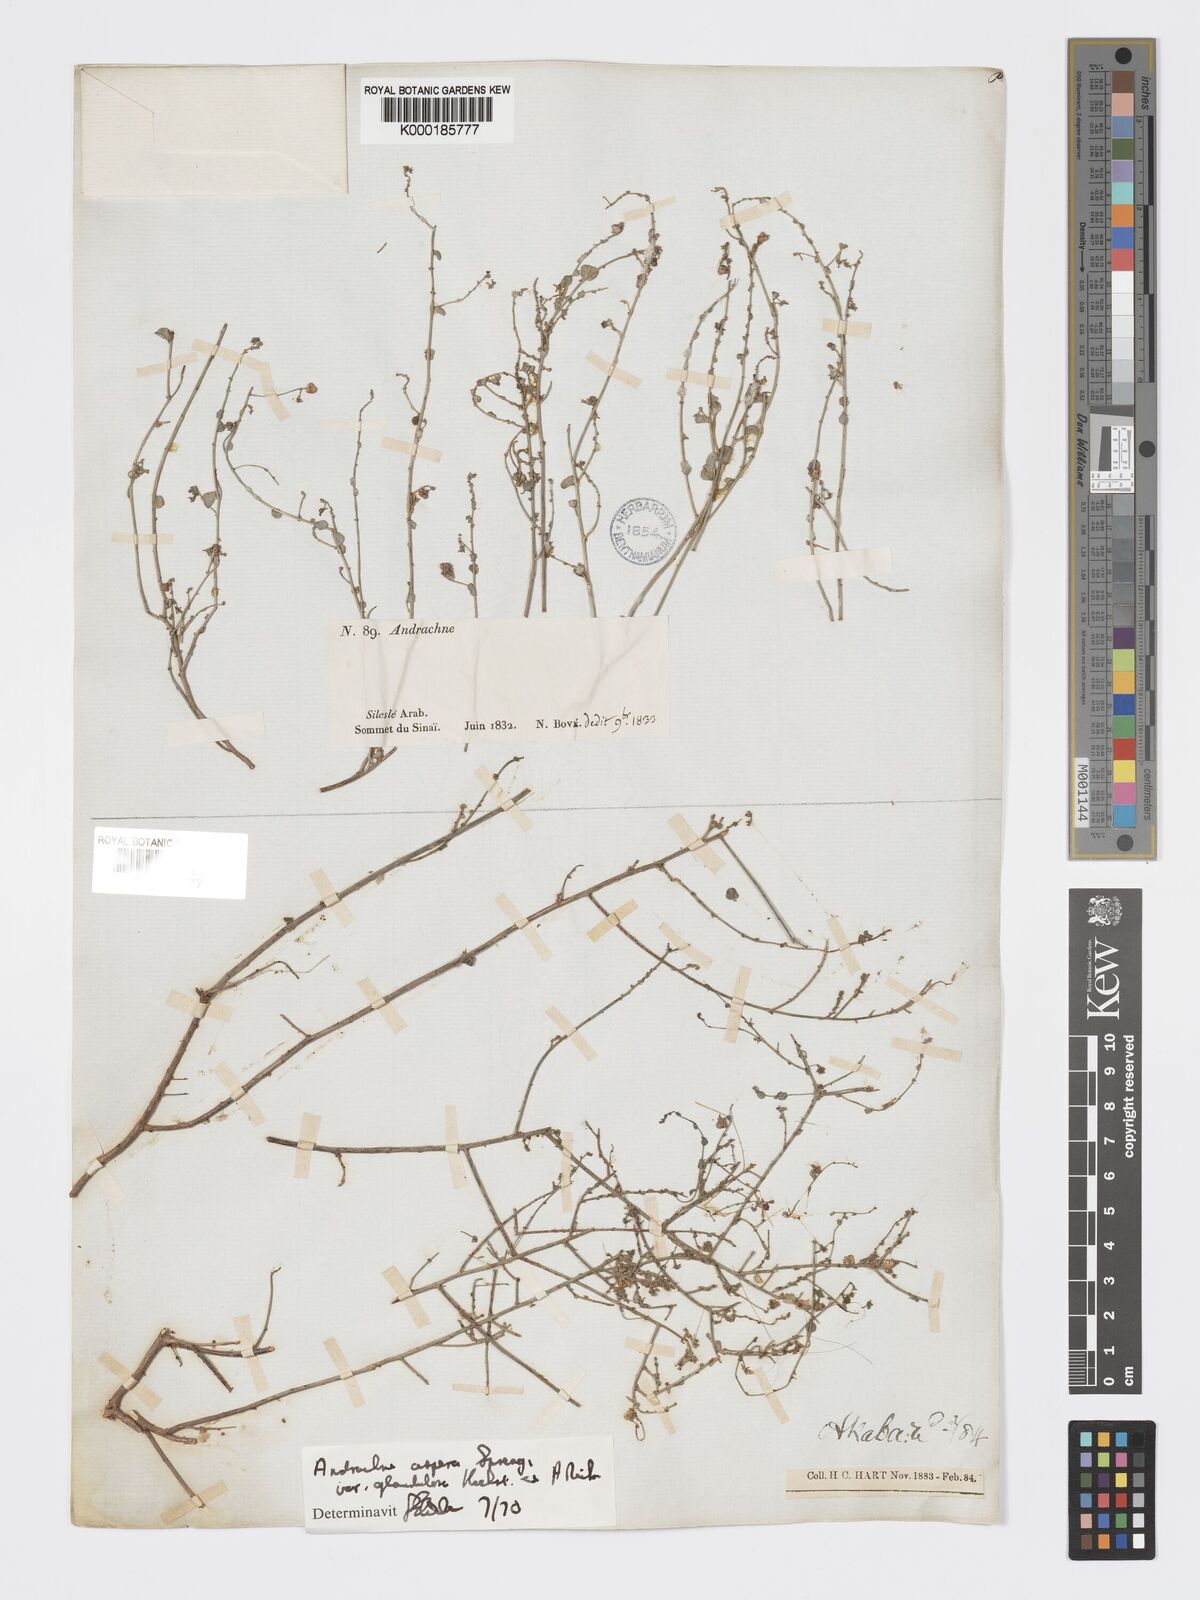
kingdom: Plantae
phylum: Tracheophyta
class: Magnoliopsida
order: Malpighiales
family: Phyllanthaceae
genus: Andrachne
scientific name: Andrachne aspera
